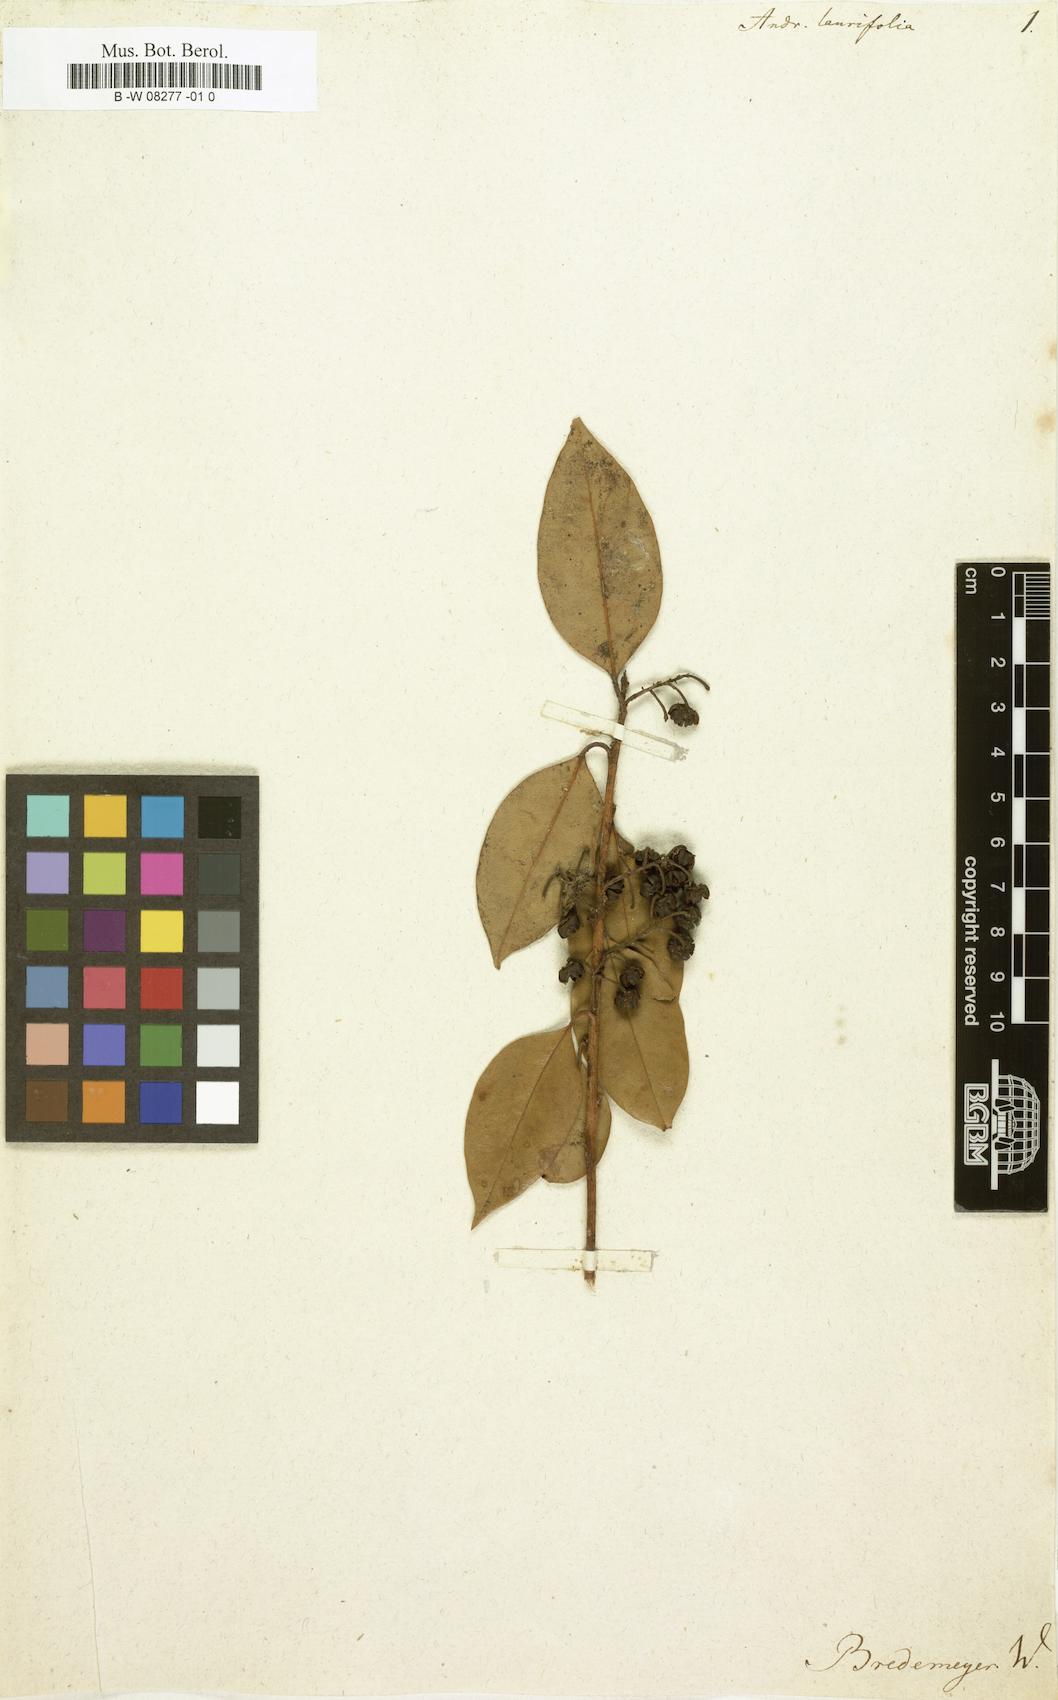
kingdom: Plantae
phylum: Tracheophyta
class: Magnoliopsida
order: Ericales
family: Ericaceae
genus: Andromeda
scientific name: Andromeda
